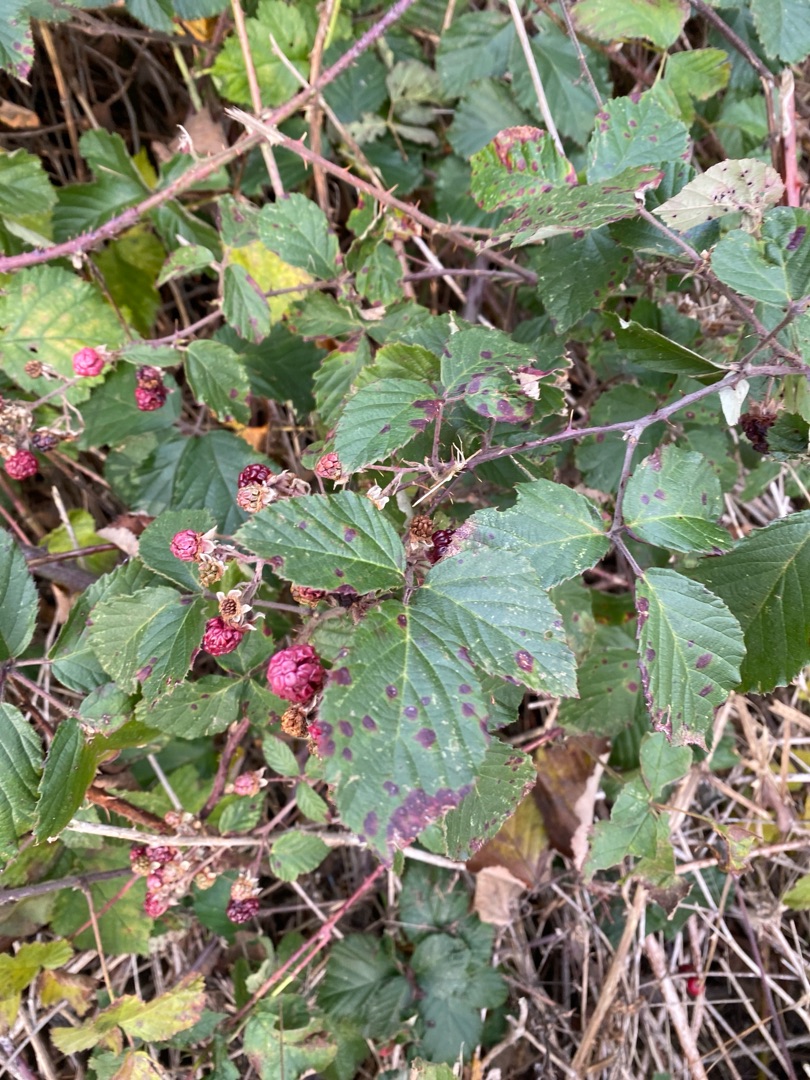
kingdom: Plantae
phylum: Tracheophyta
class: Magnoliopsida
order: Rosales
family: Rosaceae
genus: Rubus
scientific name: Rubus
